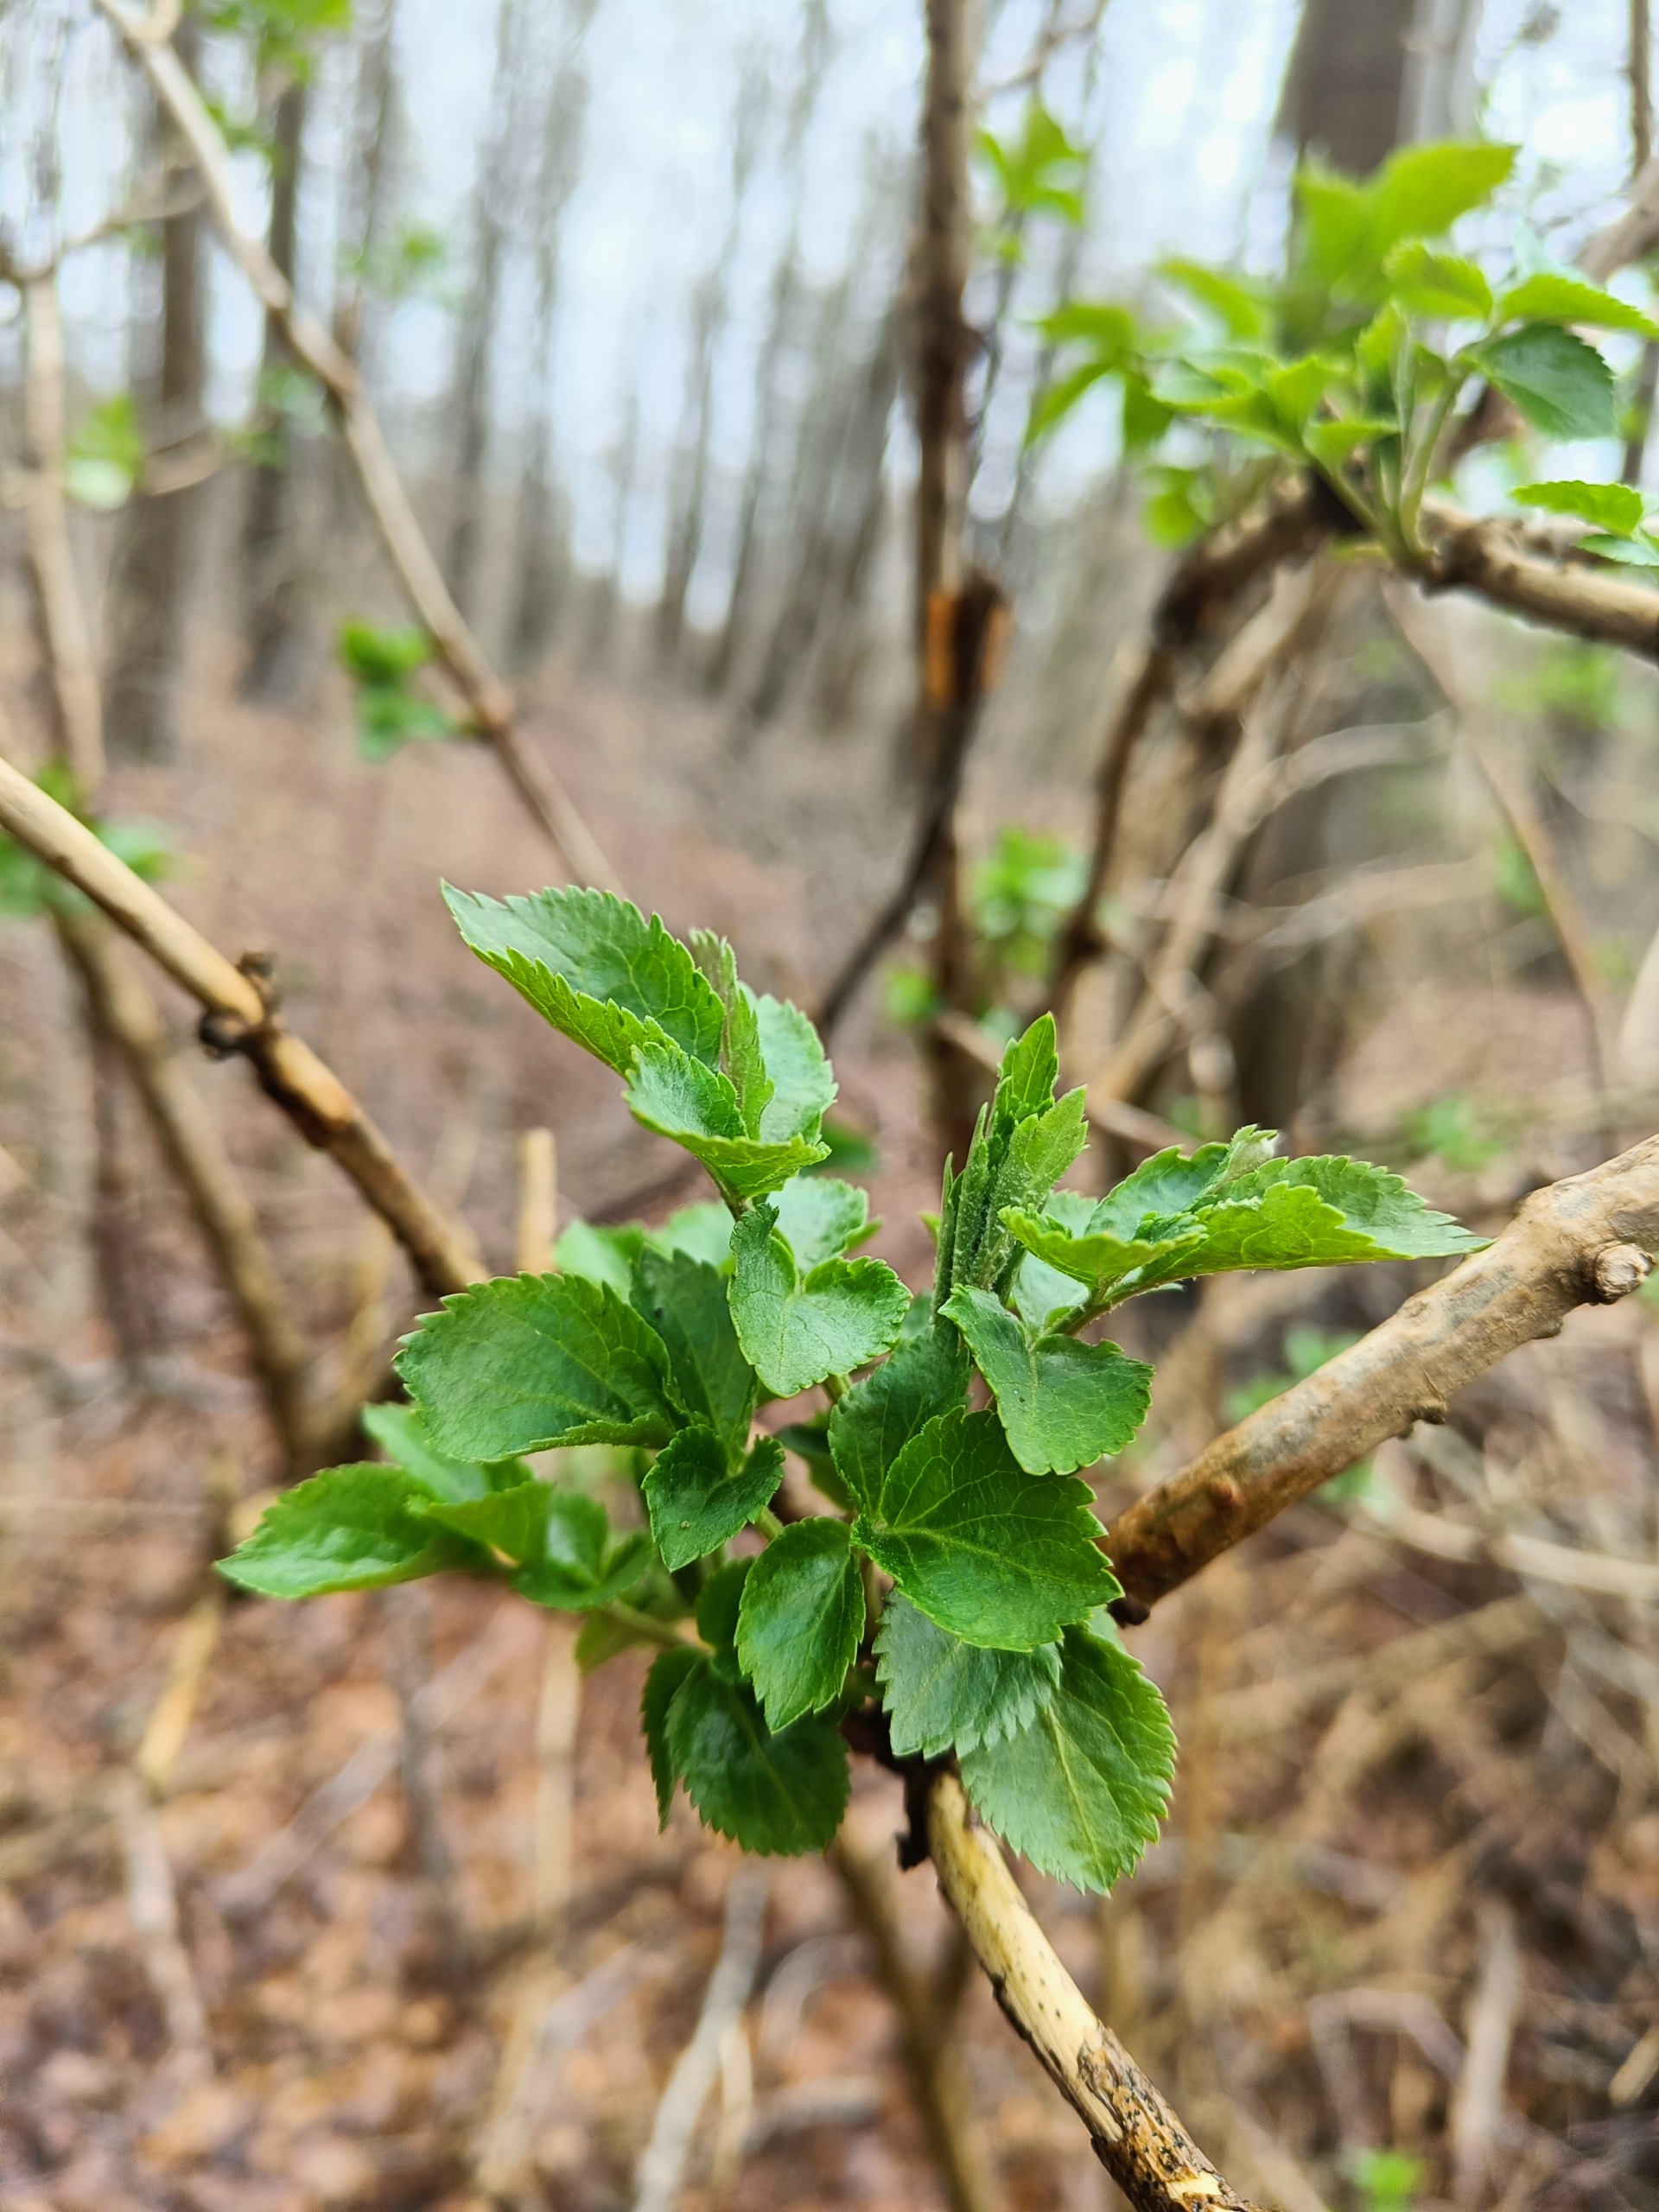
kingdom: Plantae
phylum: Tracheophyta
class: Magnoliopsida
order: Dipsacales
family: Viburnaceae
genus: Sambucus
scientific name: Sambucus nigra
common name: Almindelig hyld
